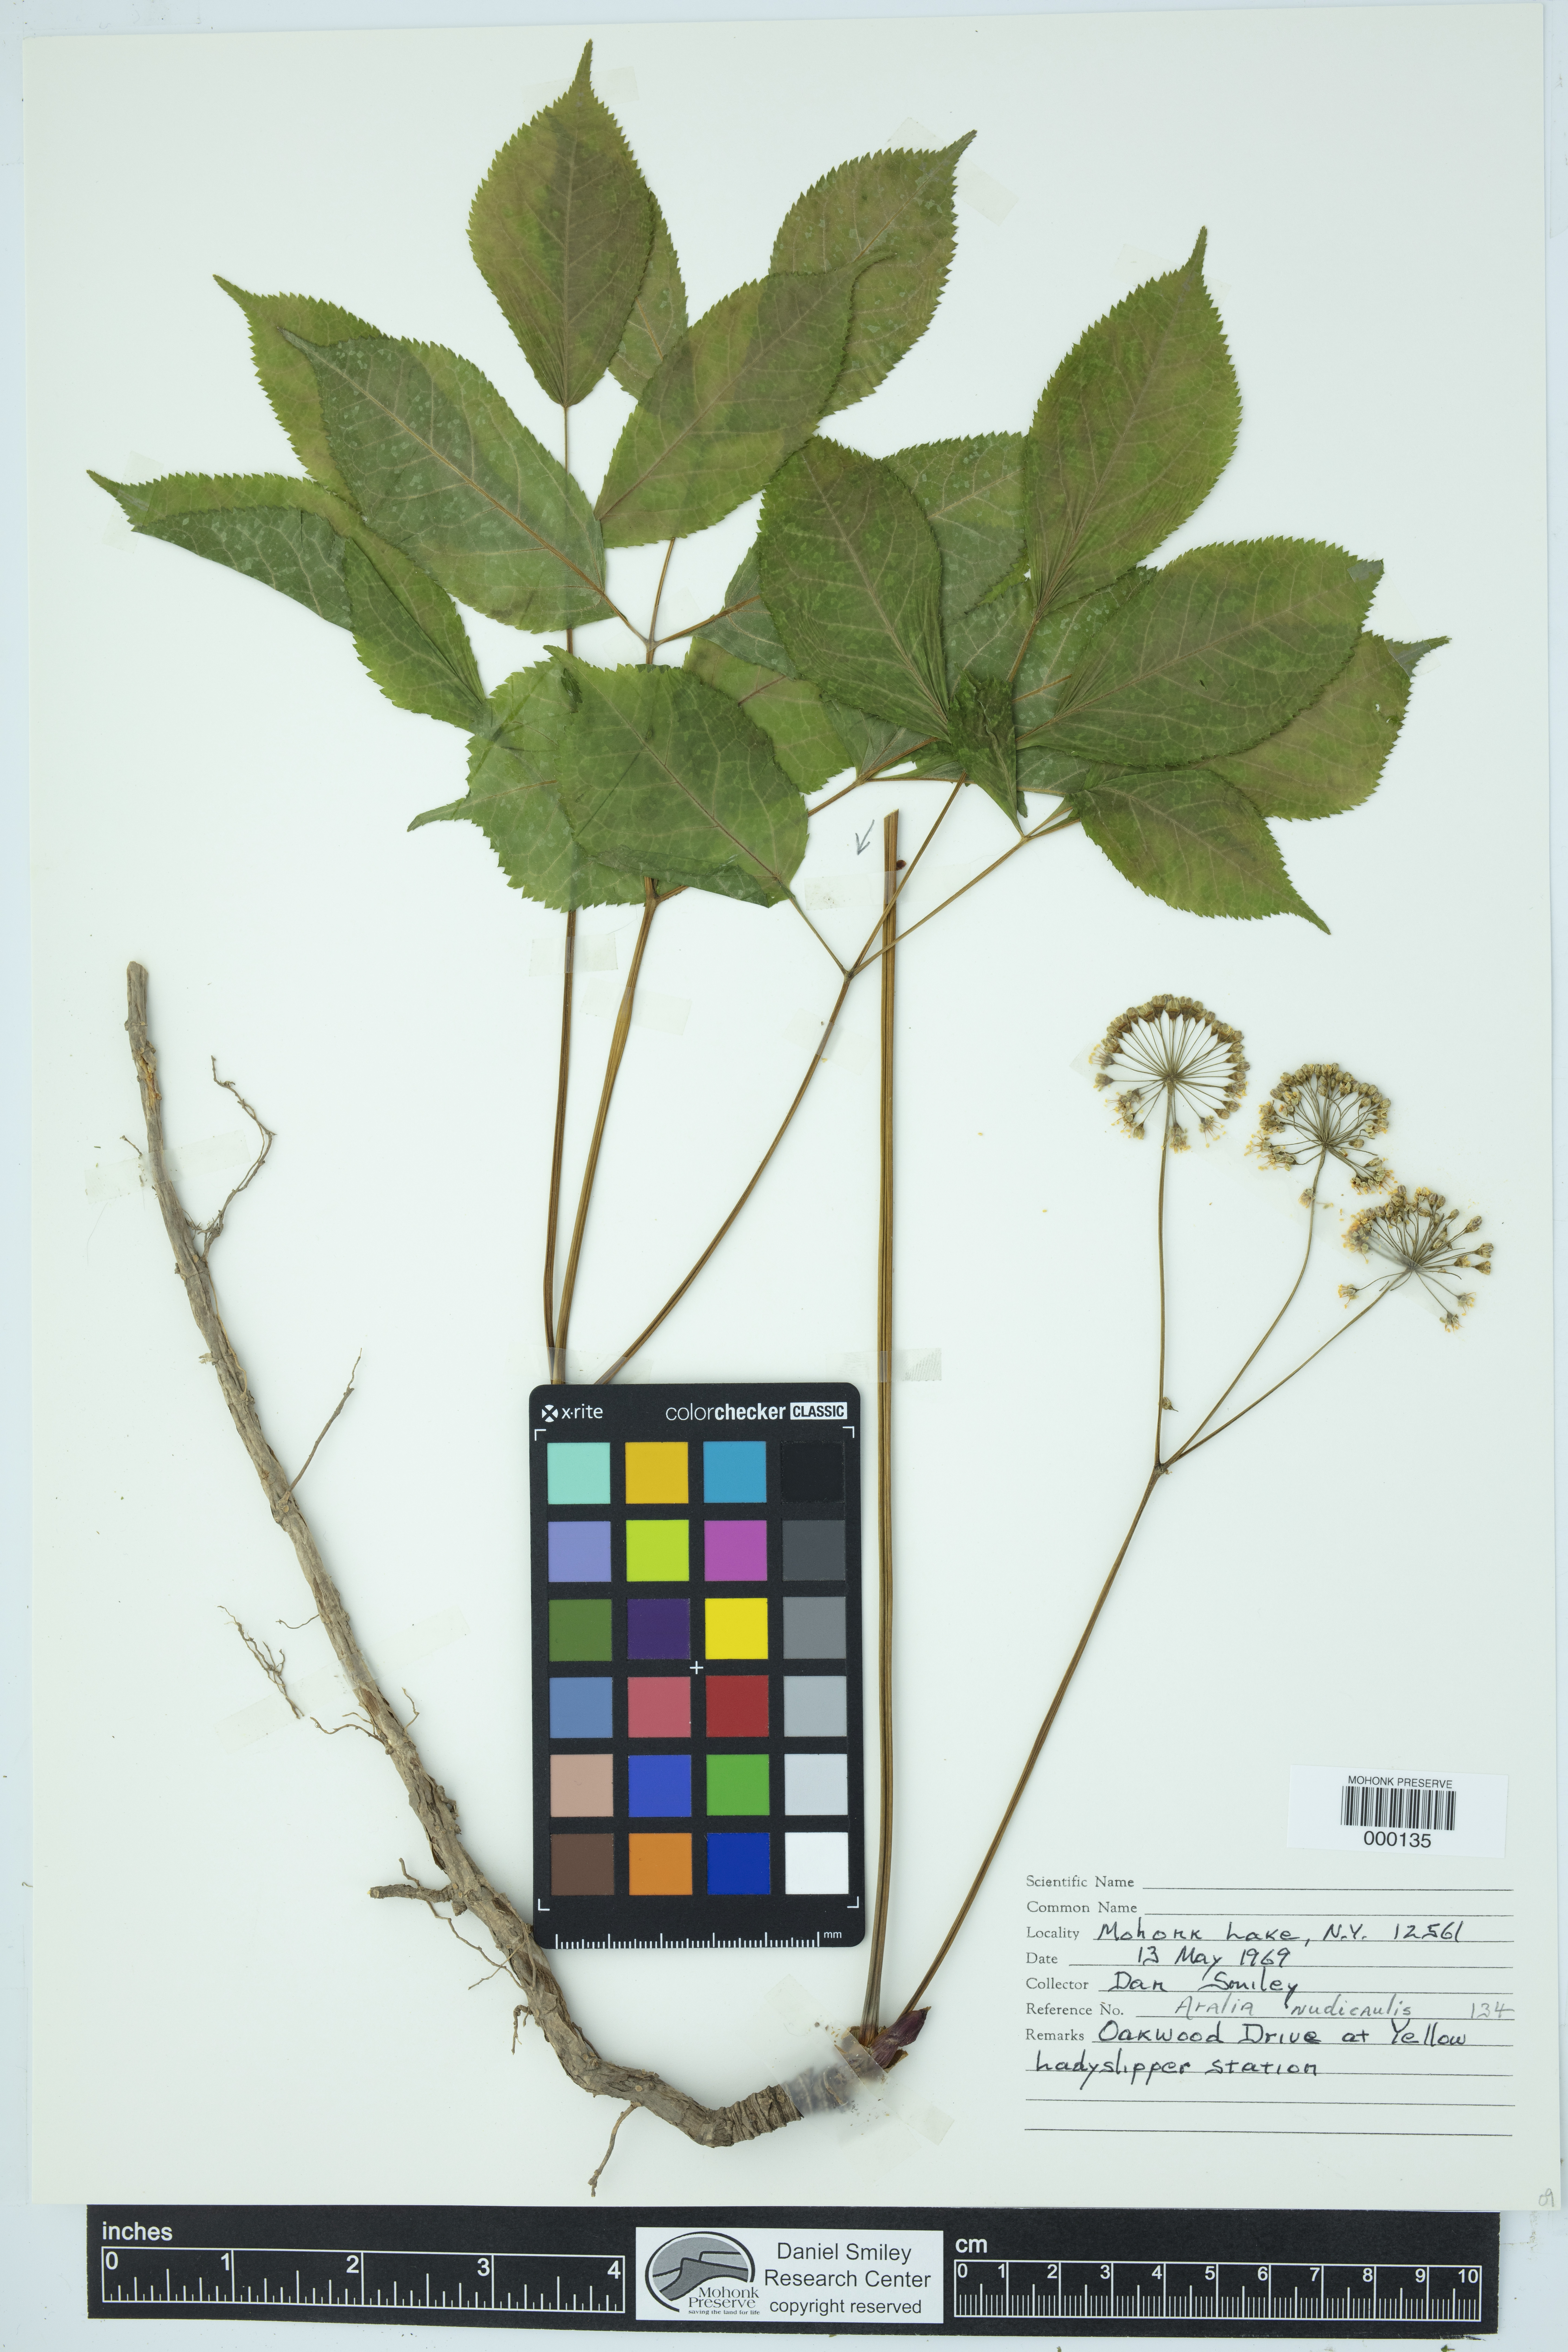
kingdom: Plantae
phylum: Tracheophyta
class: Magnoliopsida
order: Apiales
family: Araliaceae
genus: Aralia
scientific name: Aralia nudicaulis
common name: Wild sarsaparilla
